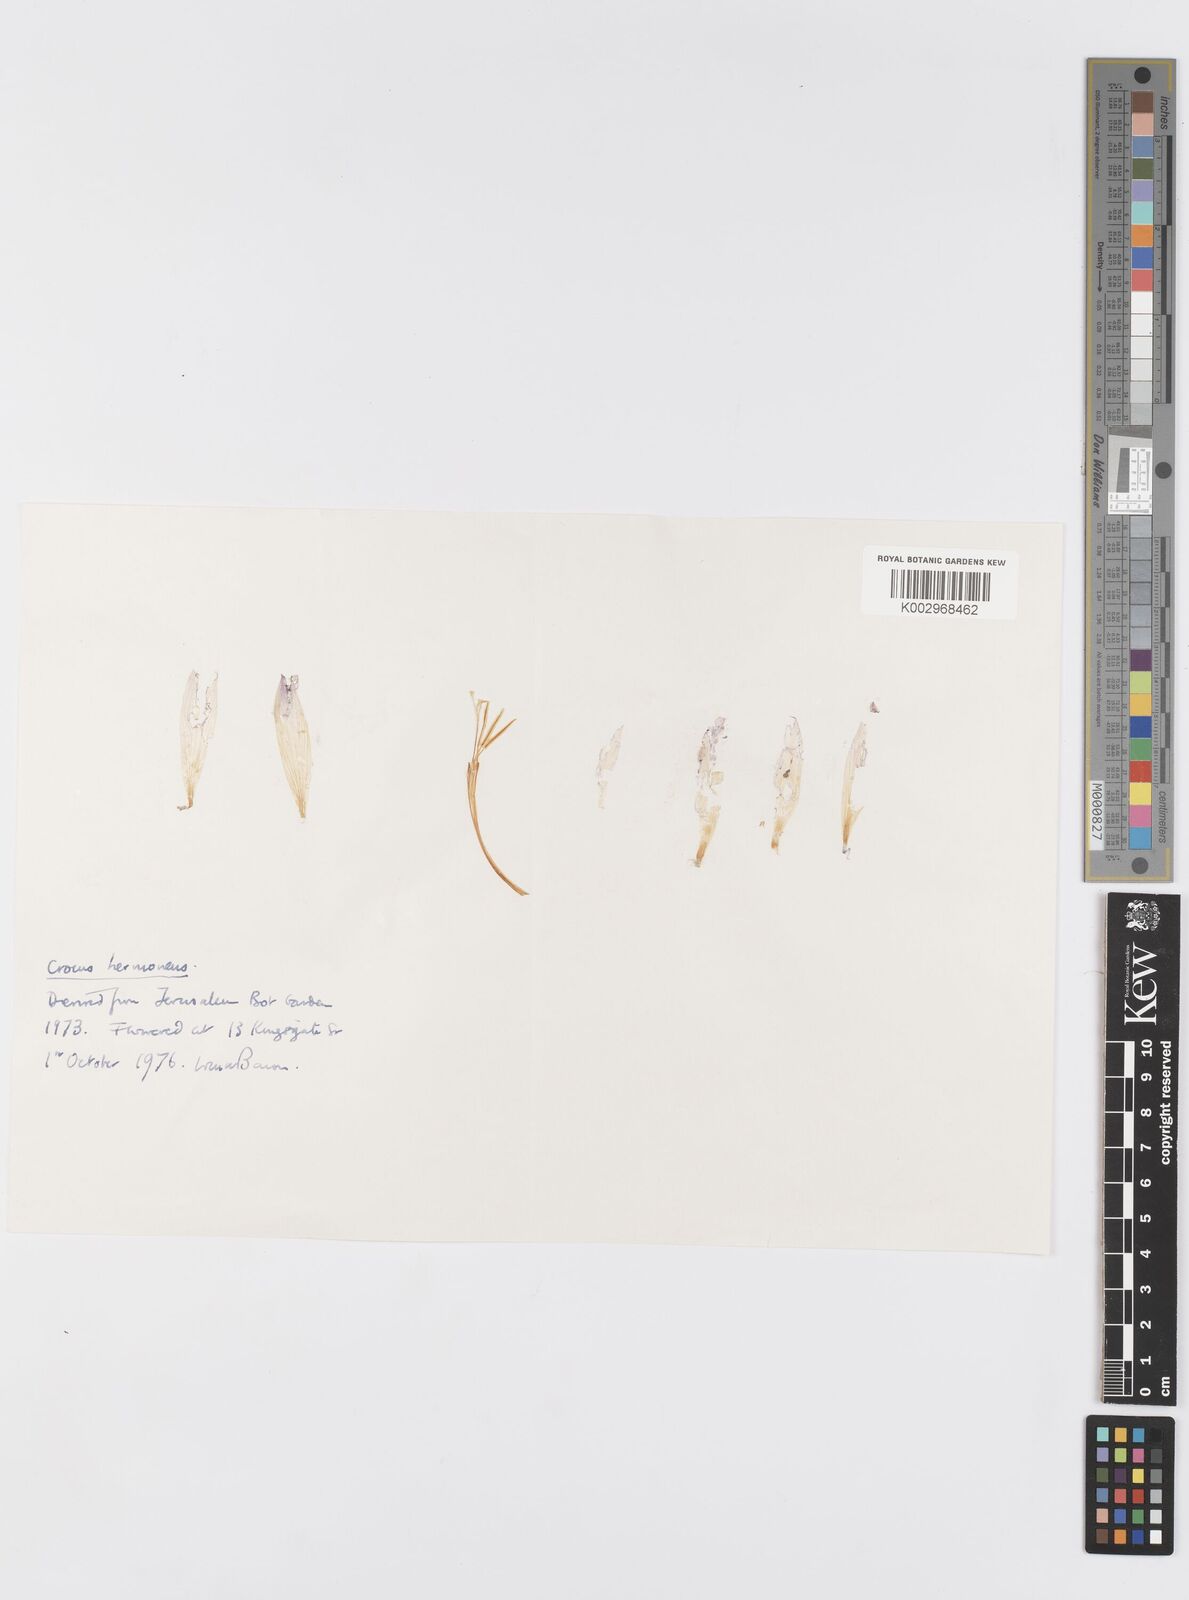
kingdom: Plantae
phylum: Tracheophyta
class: Liliopsida
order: Asparagales
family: Iridaceae
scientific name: Iridaceae
